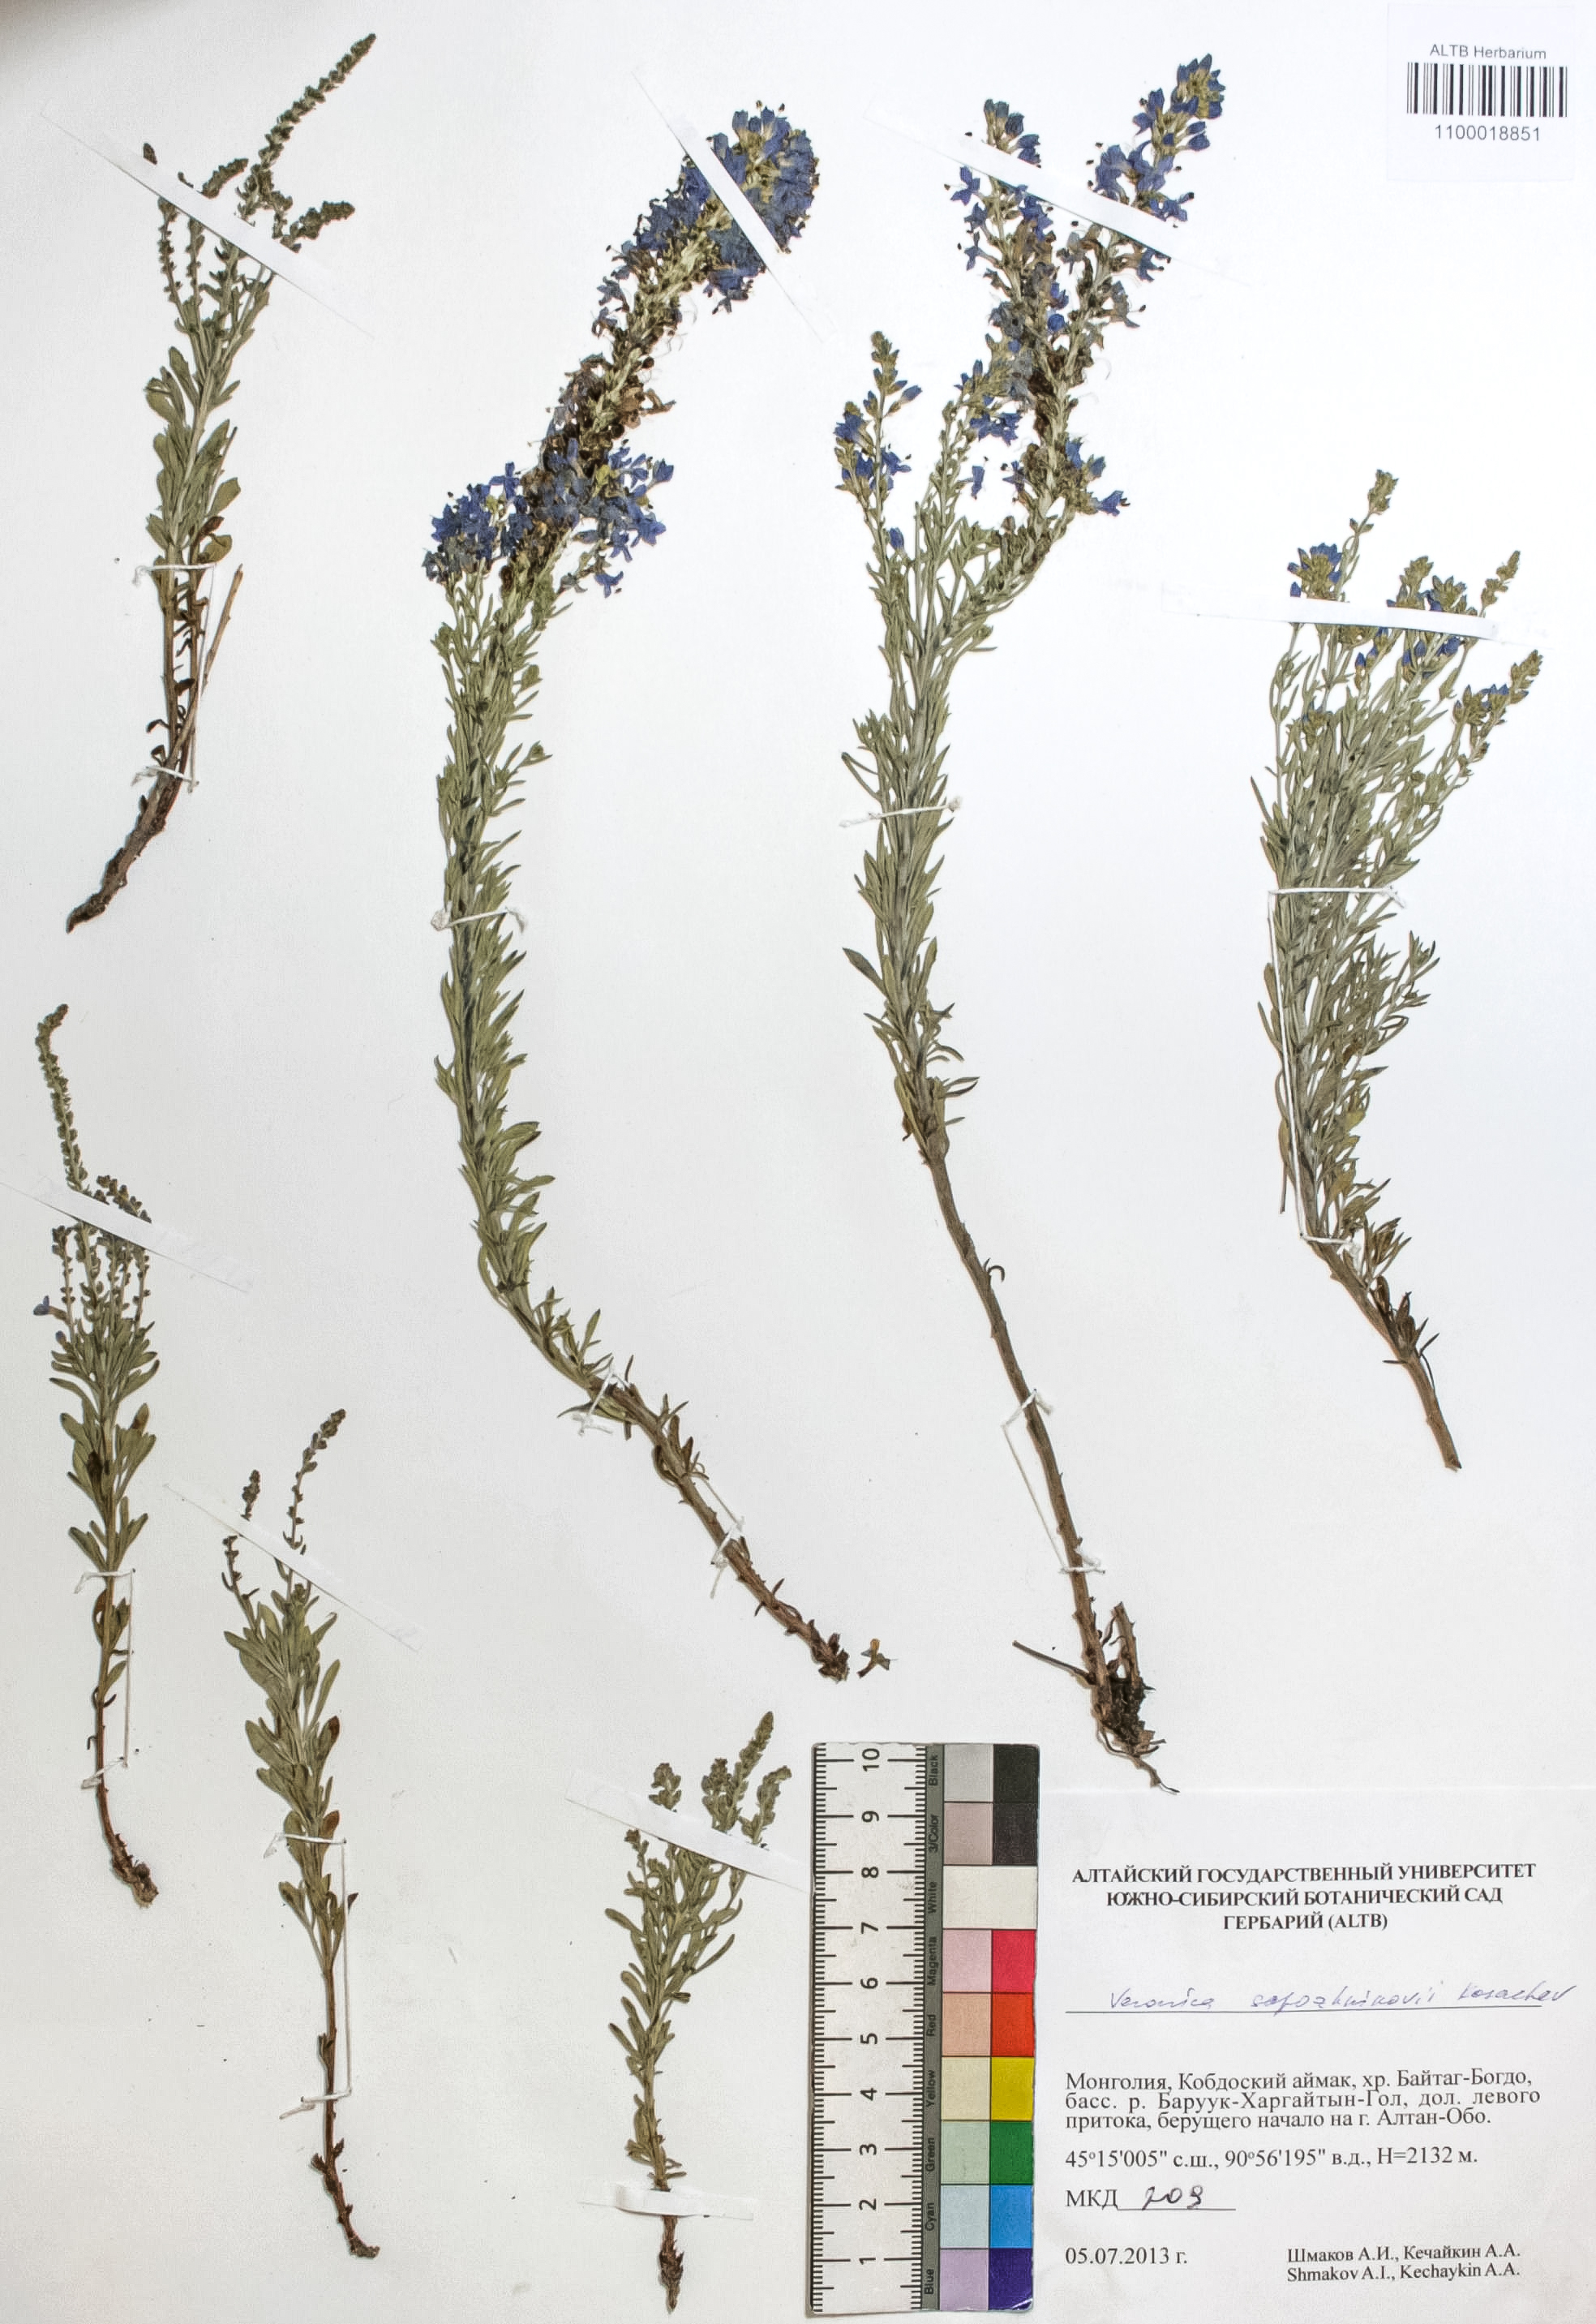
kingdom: Plantae
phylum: Tracheophyta
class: Magnoliopsida
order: Lamiales
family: Plantaginaceae
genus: Veronica
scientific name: Veronica sapozhnikovii
